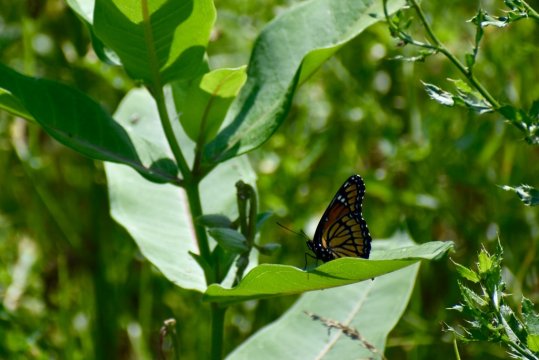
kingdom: Animalia
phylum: Arthropoda
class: Insecta
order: Lepidoptera
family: Nymphalidae
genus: Limenitis
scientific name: Limenitis archippus
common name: Viceroy
